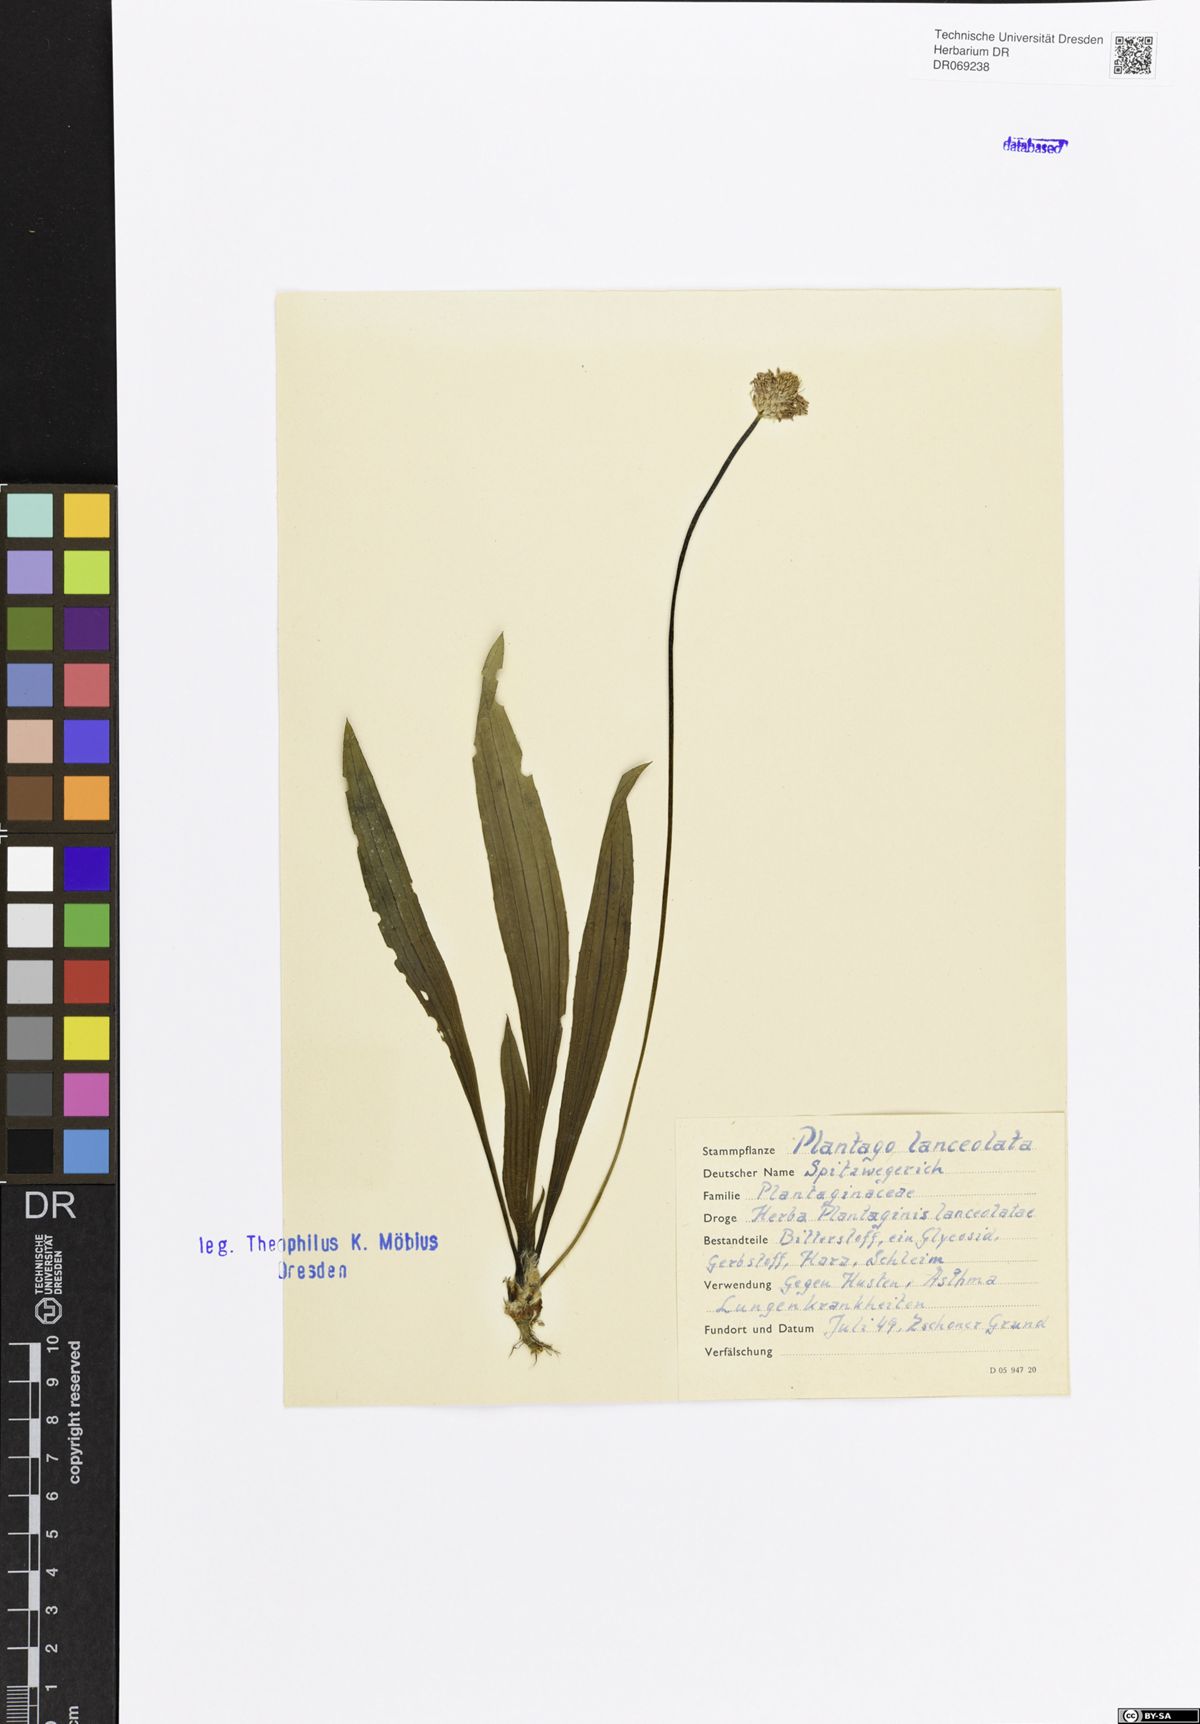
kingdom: Plantae
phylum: Tracheophyta
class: Magnoliopsida
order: Lamiales
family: Plantaginaceae
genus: Plantago
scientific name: Plantago lanceolata
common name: Ribwort plantain
